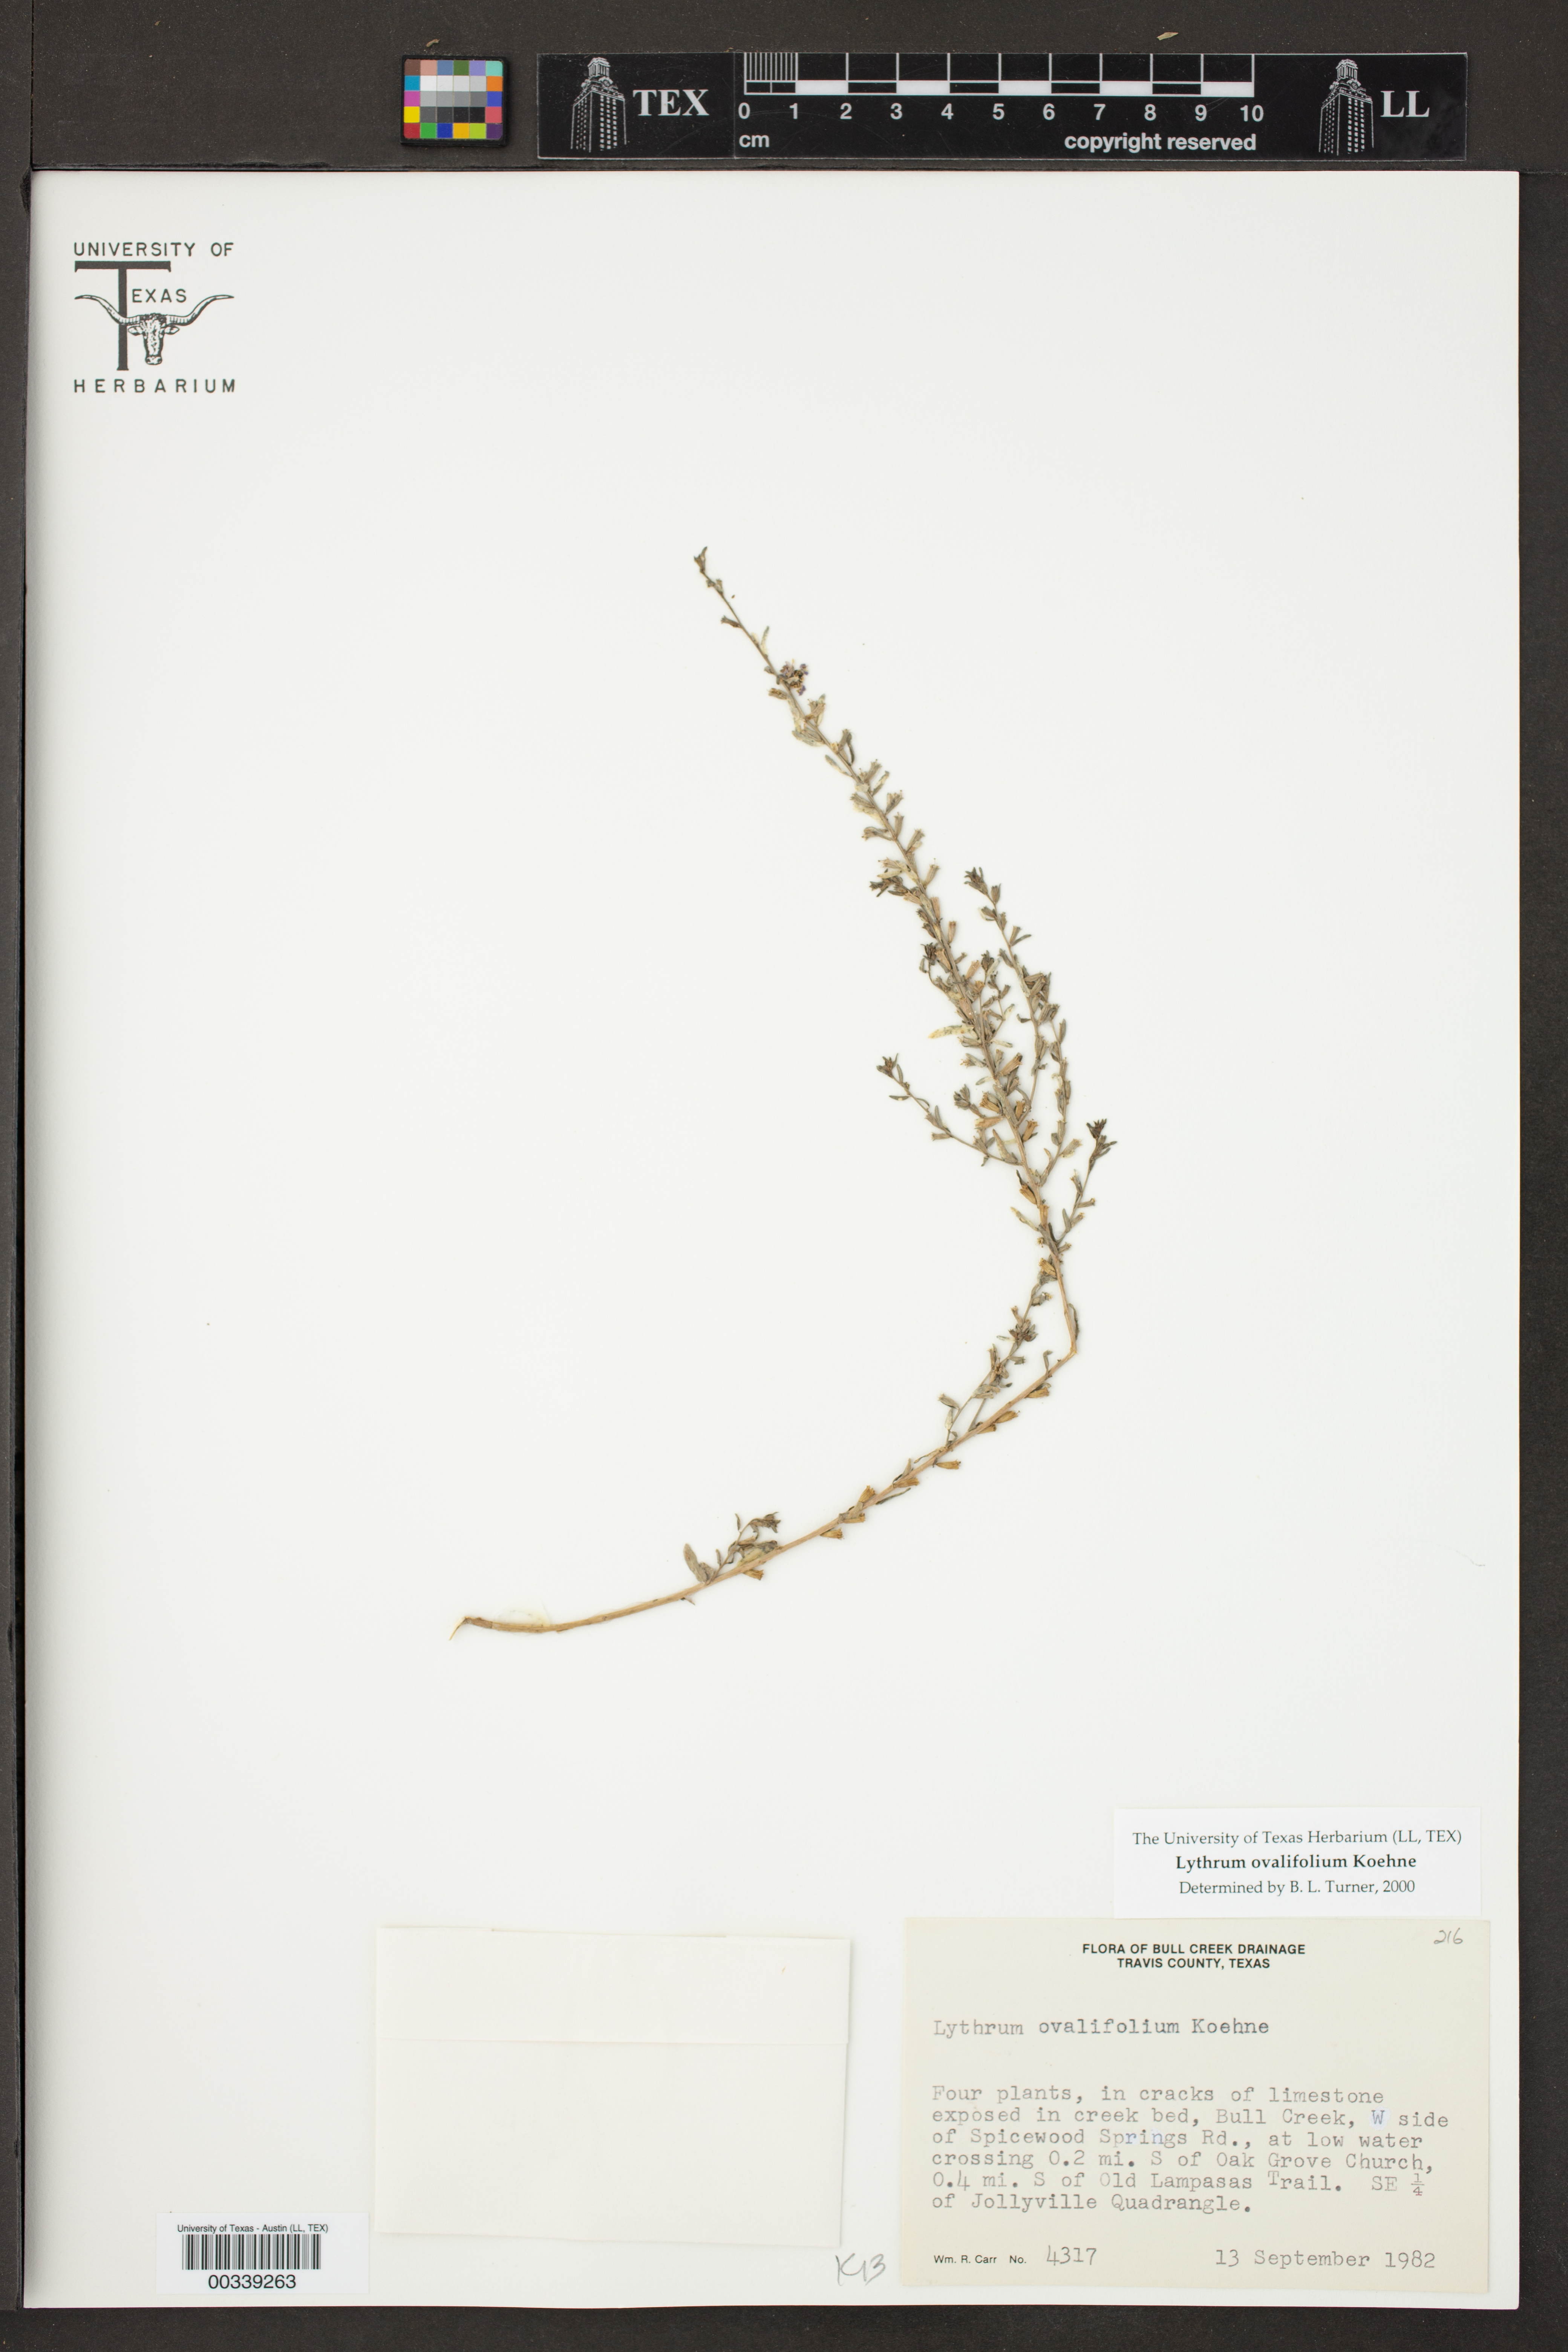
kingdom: Plantae
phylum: Tracheophyta
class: Magnoliopsida
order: Myrtales
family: Lythraceae
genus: Lythrum
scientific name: Lythrum ovalifolium
